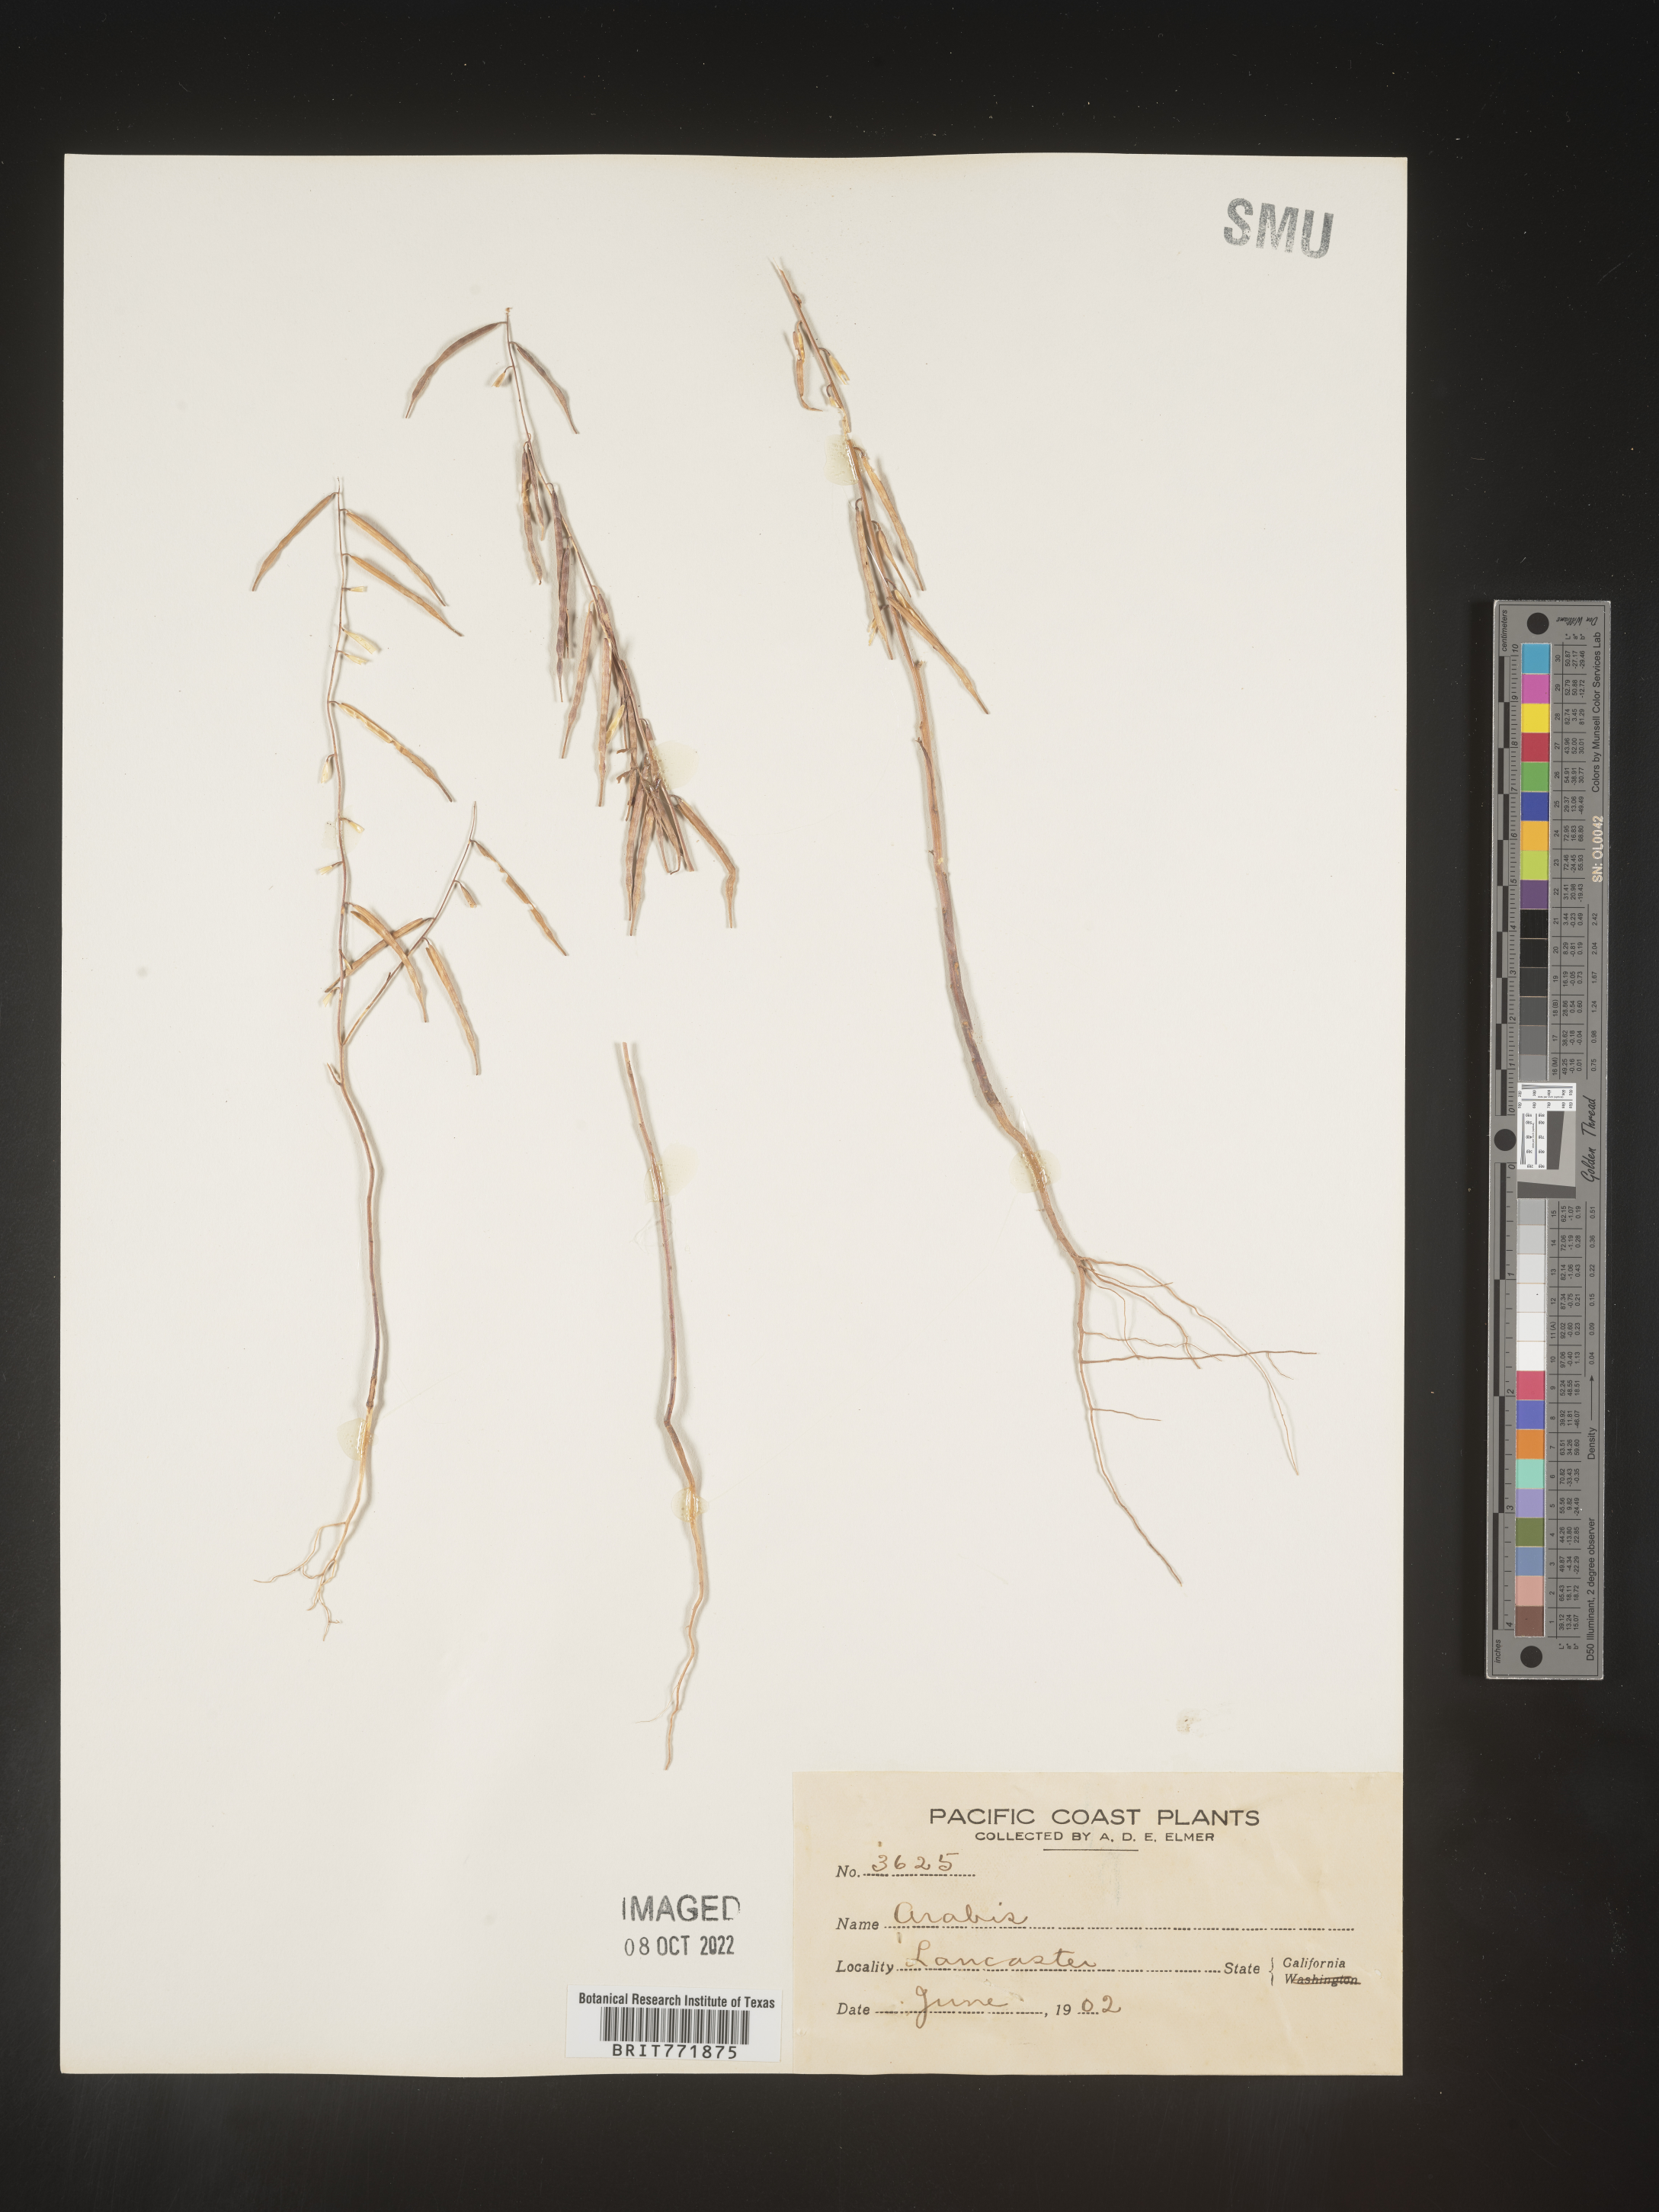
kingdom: Plantae
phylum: Tracheophyta
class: Magnoliopsida
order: Brassicales
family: Brassicaceae
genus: Arabis
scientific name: Arabis
